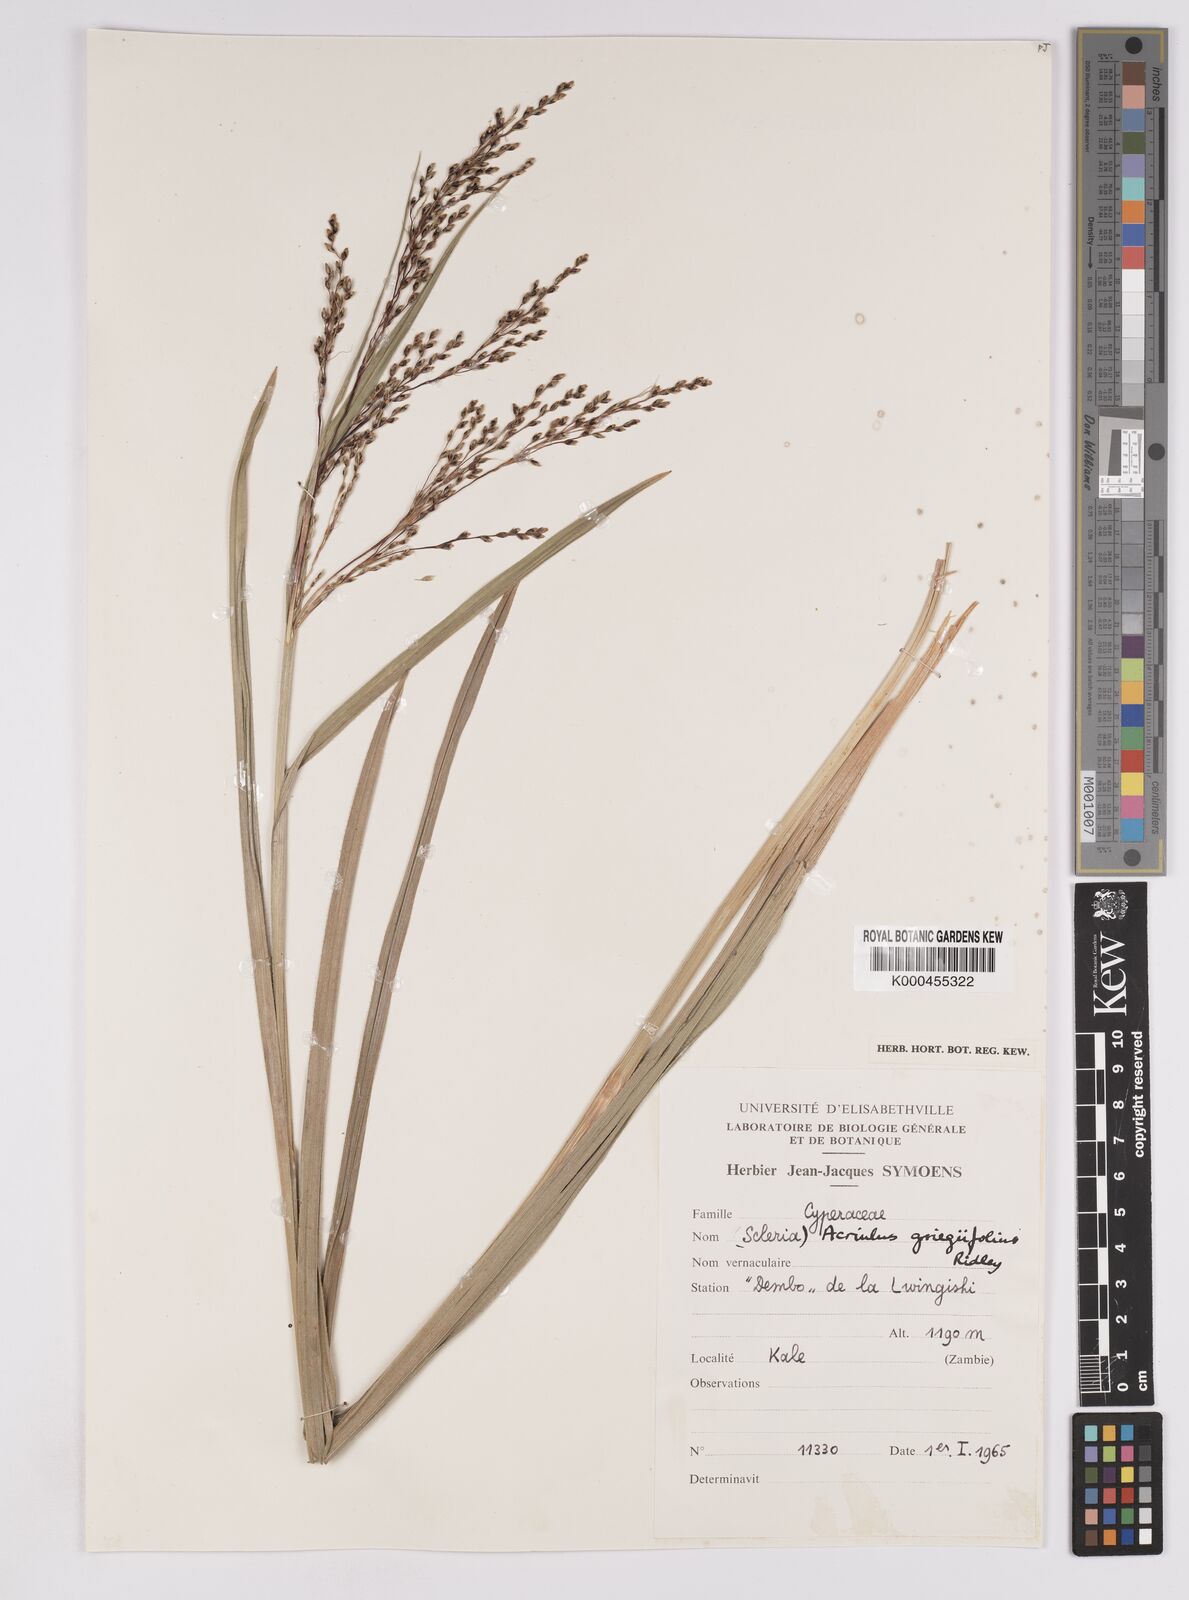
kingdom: Plantae
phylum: Tracheophyta
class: Liliopsida
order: Poales
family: Cyperaceae
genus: Scleria
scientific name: Scleria greigiifolia
